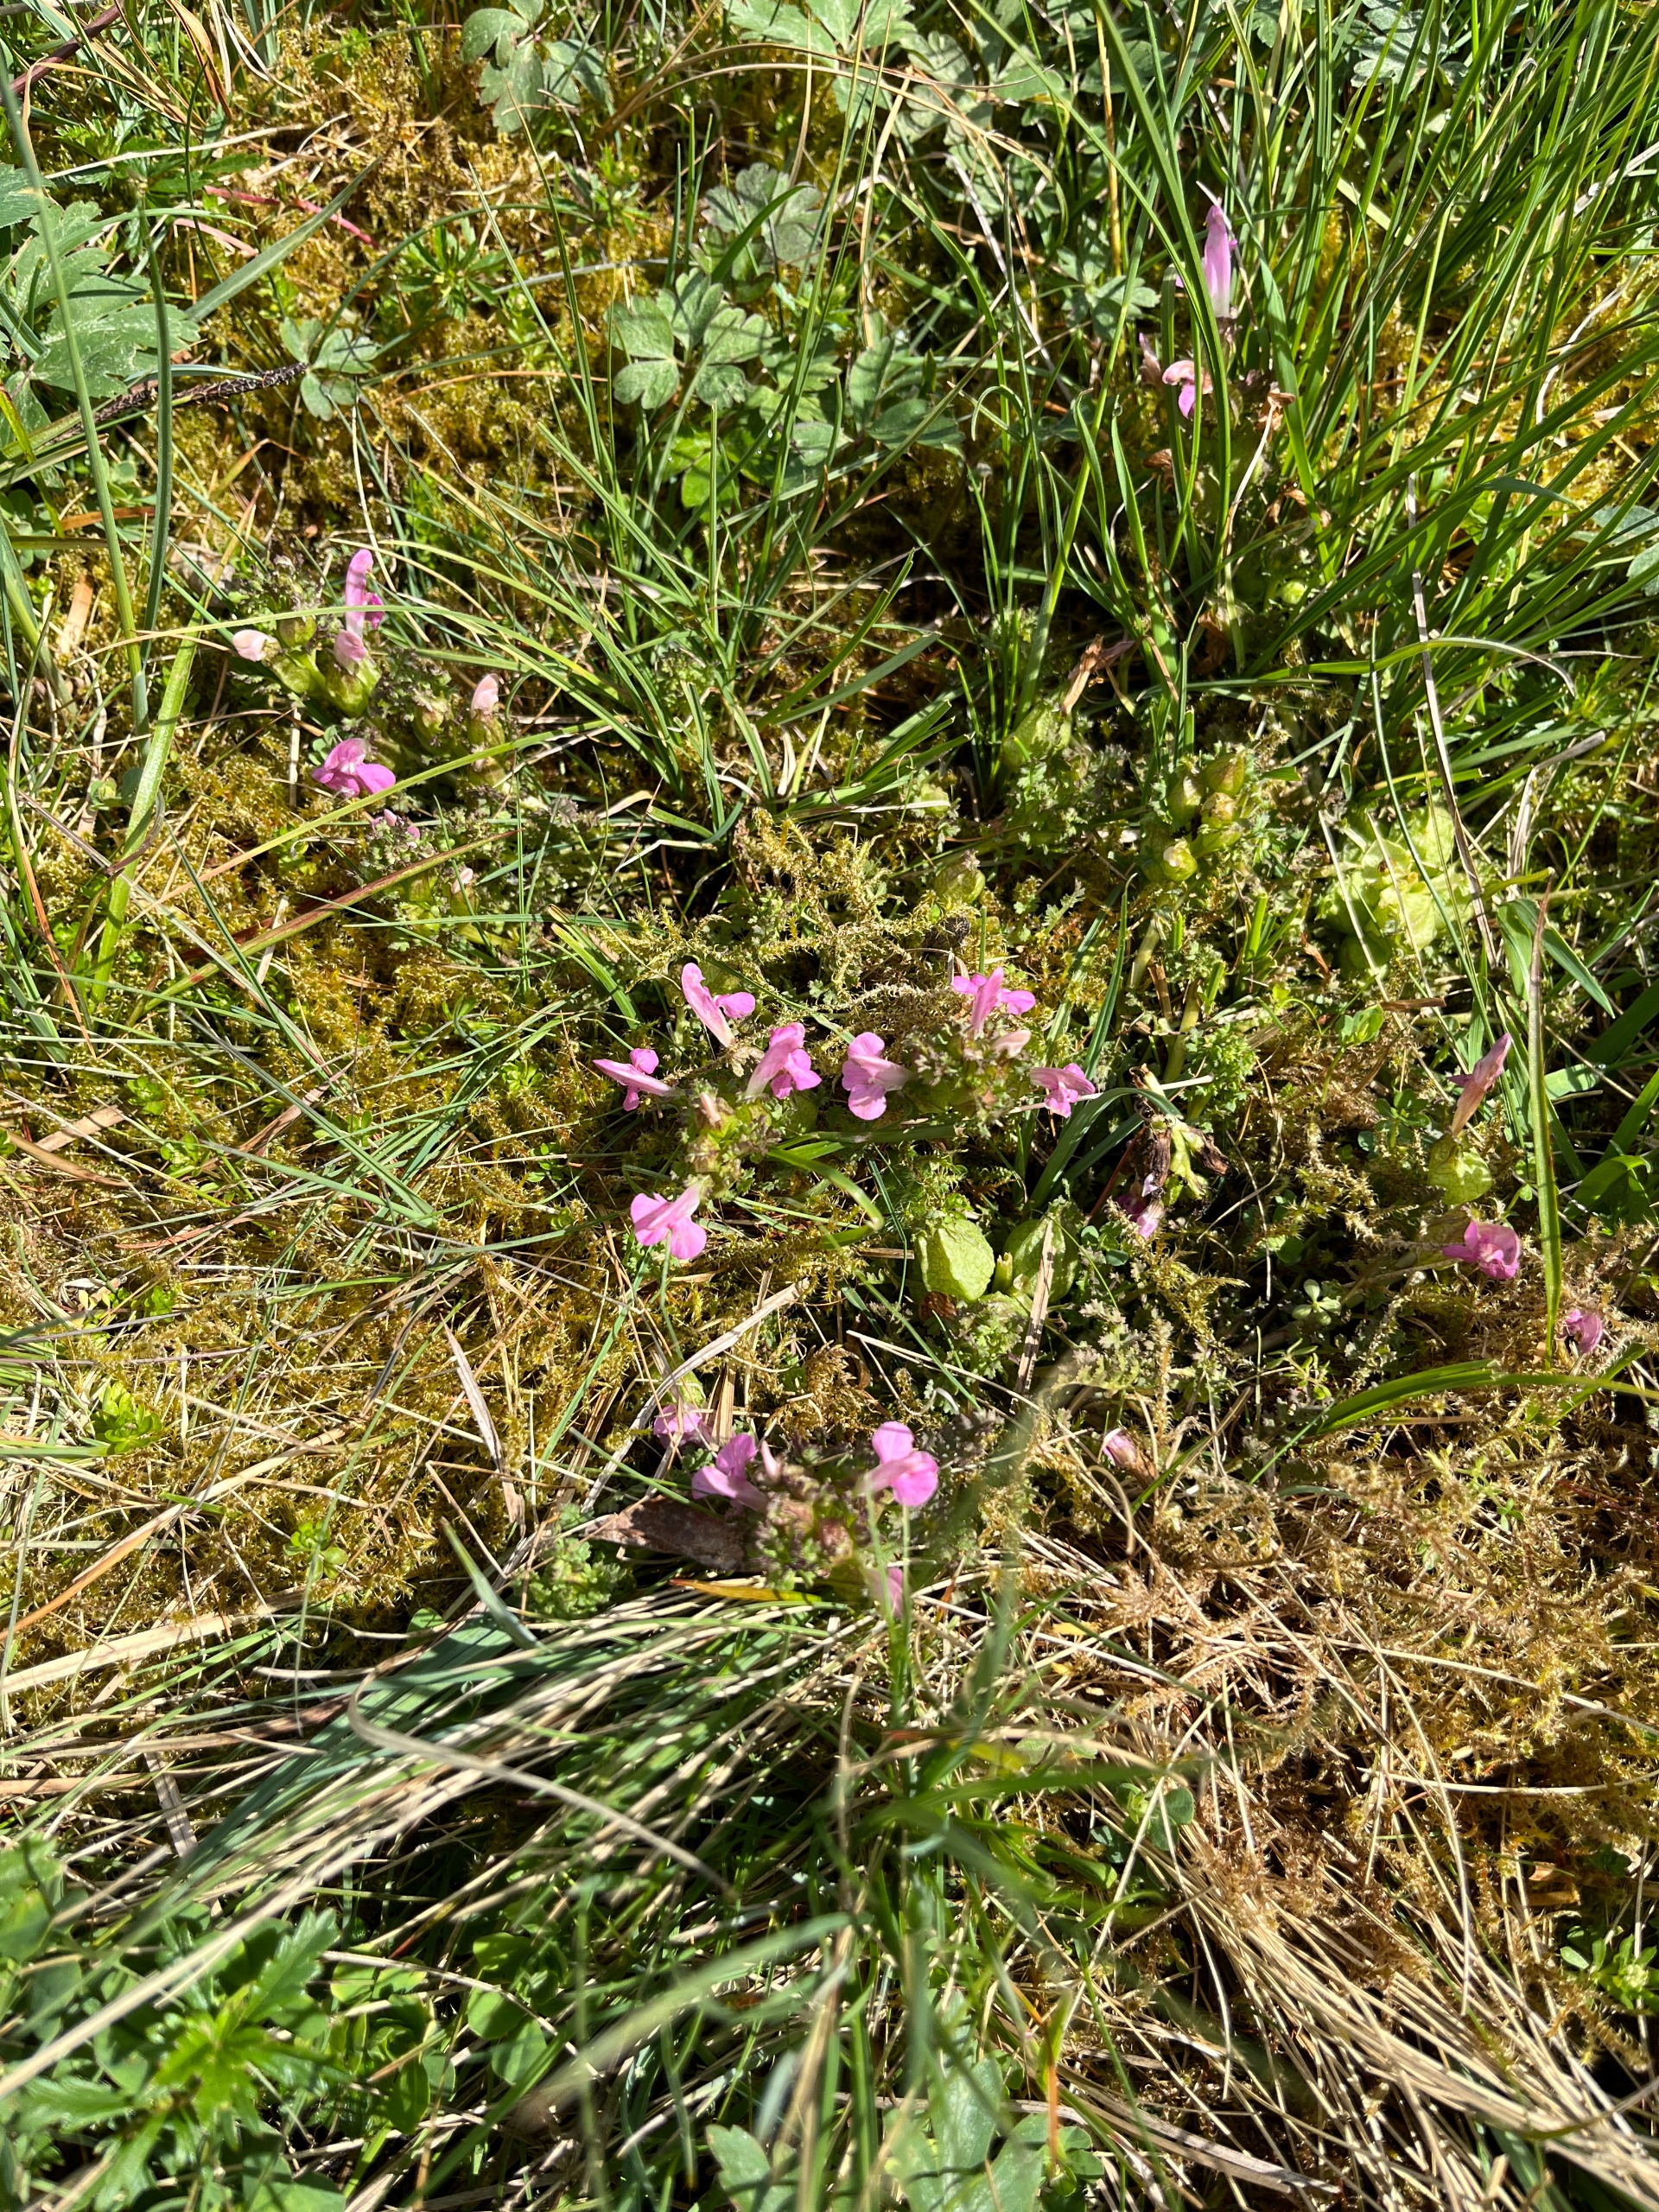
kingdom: Plantae
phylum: Tracheophyta
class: Magnoliopsida
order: Lamiales
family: Orobanchaceae
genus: Pedicularis
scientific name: Pedicularis sylvatica
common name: Mose-troldurt
